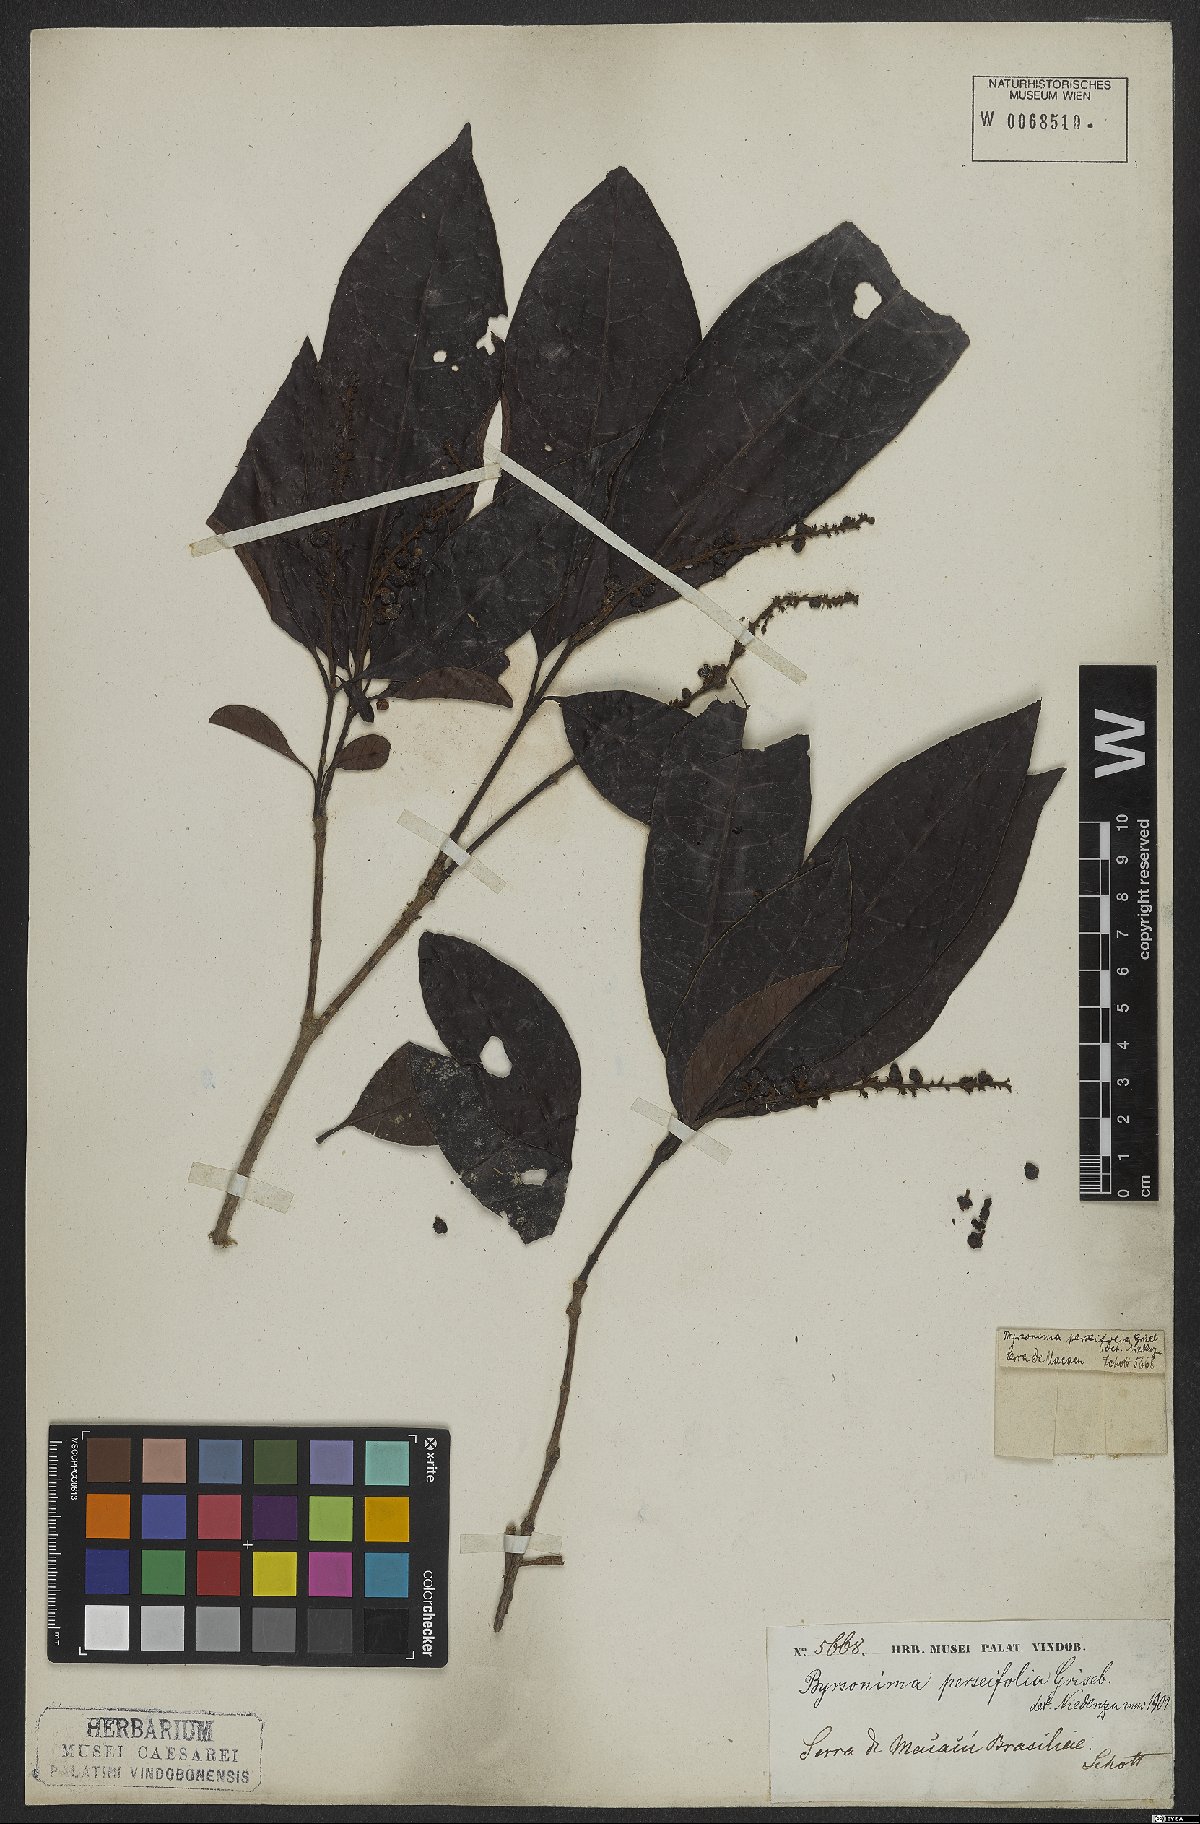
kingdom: Plantae
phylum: Tracheophyta
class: Magnoliopsida
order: Malpighiales
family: Malpighiaceae
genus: Byrsonima
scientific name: Byrsonima perseifolia
